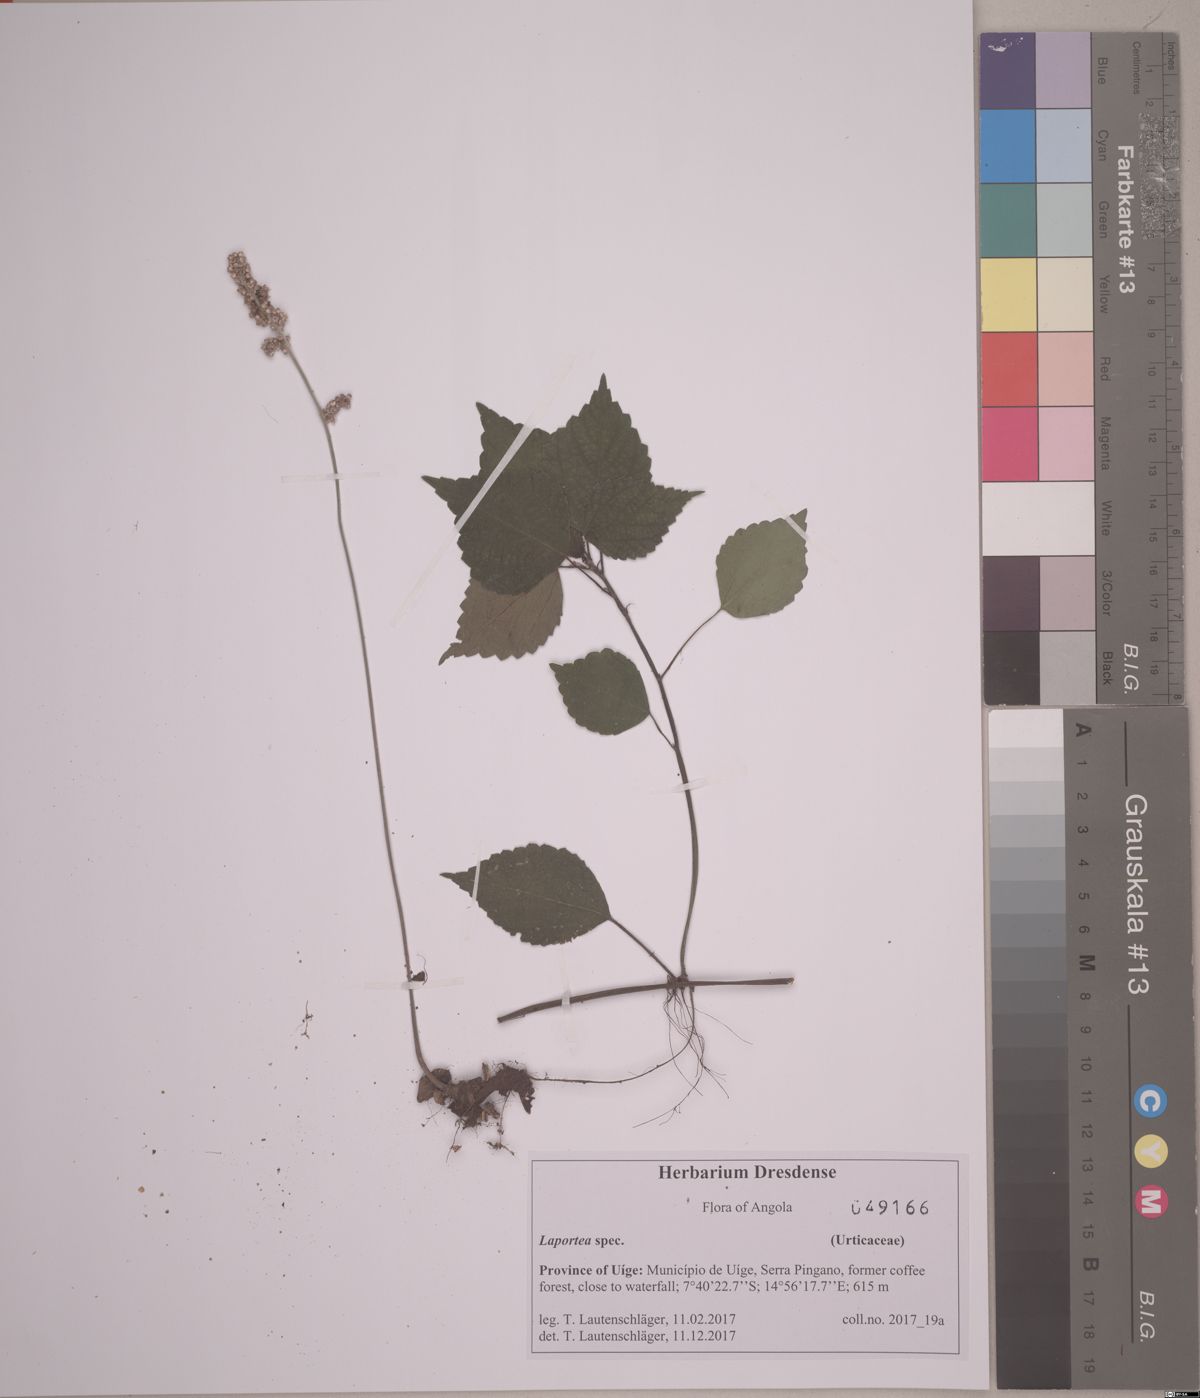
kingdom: Plantae
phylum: Tracheophyta
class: Magnoliopsida
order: Rosales
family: Urticaceae
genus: Laportea
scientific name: Laportea ovalifolia
